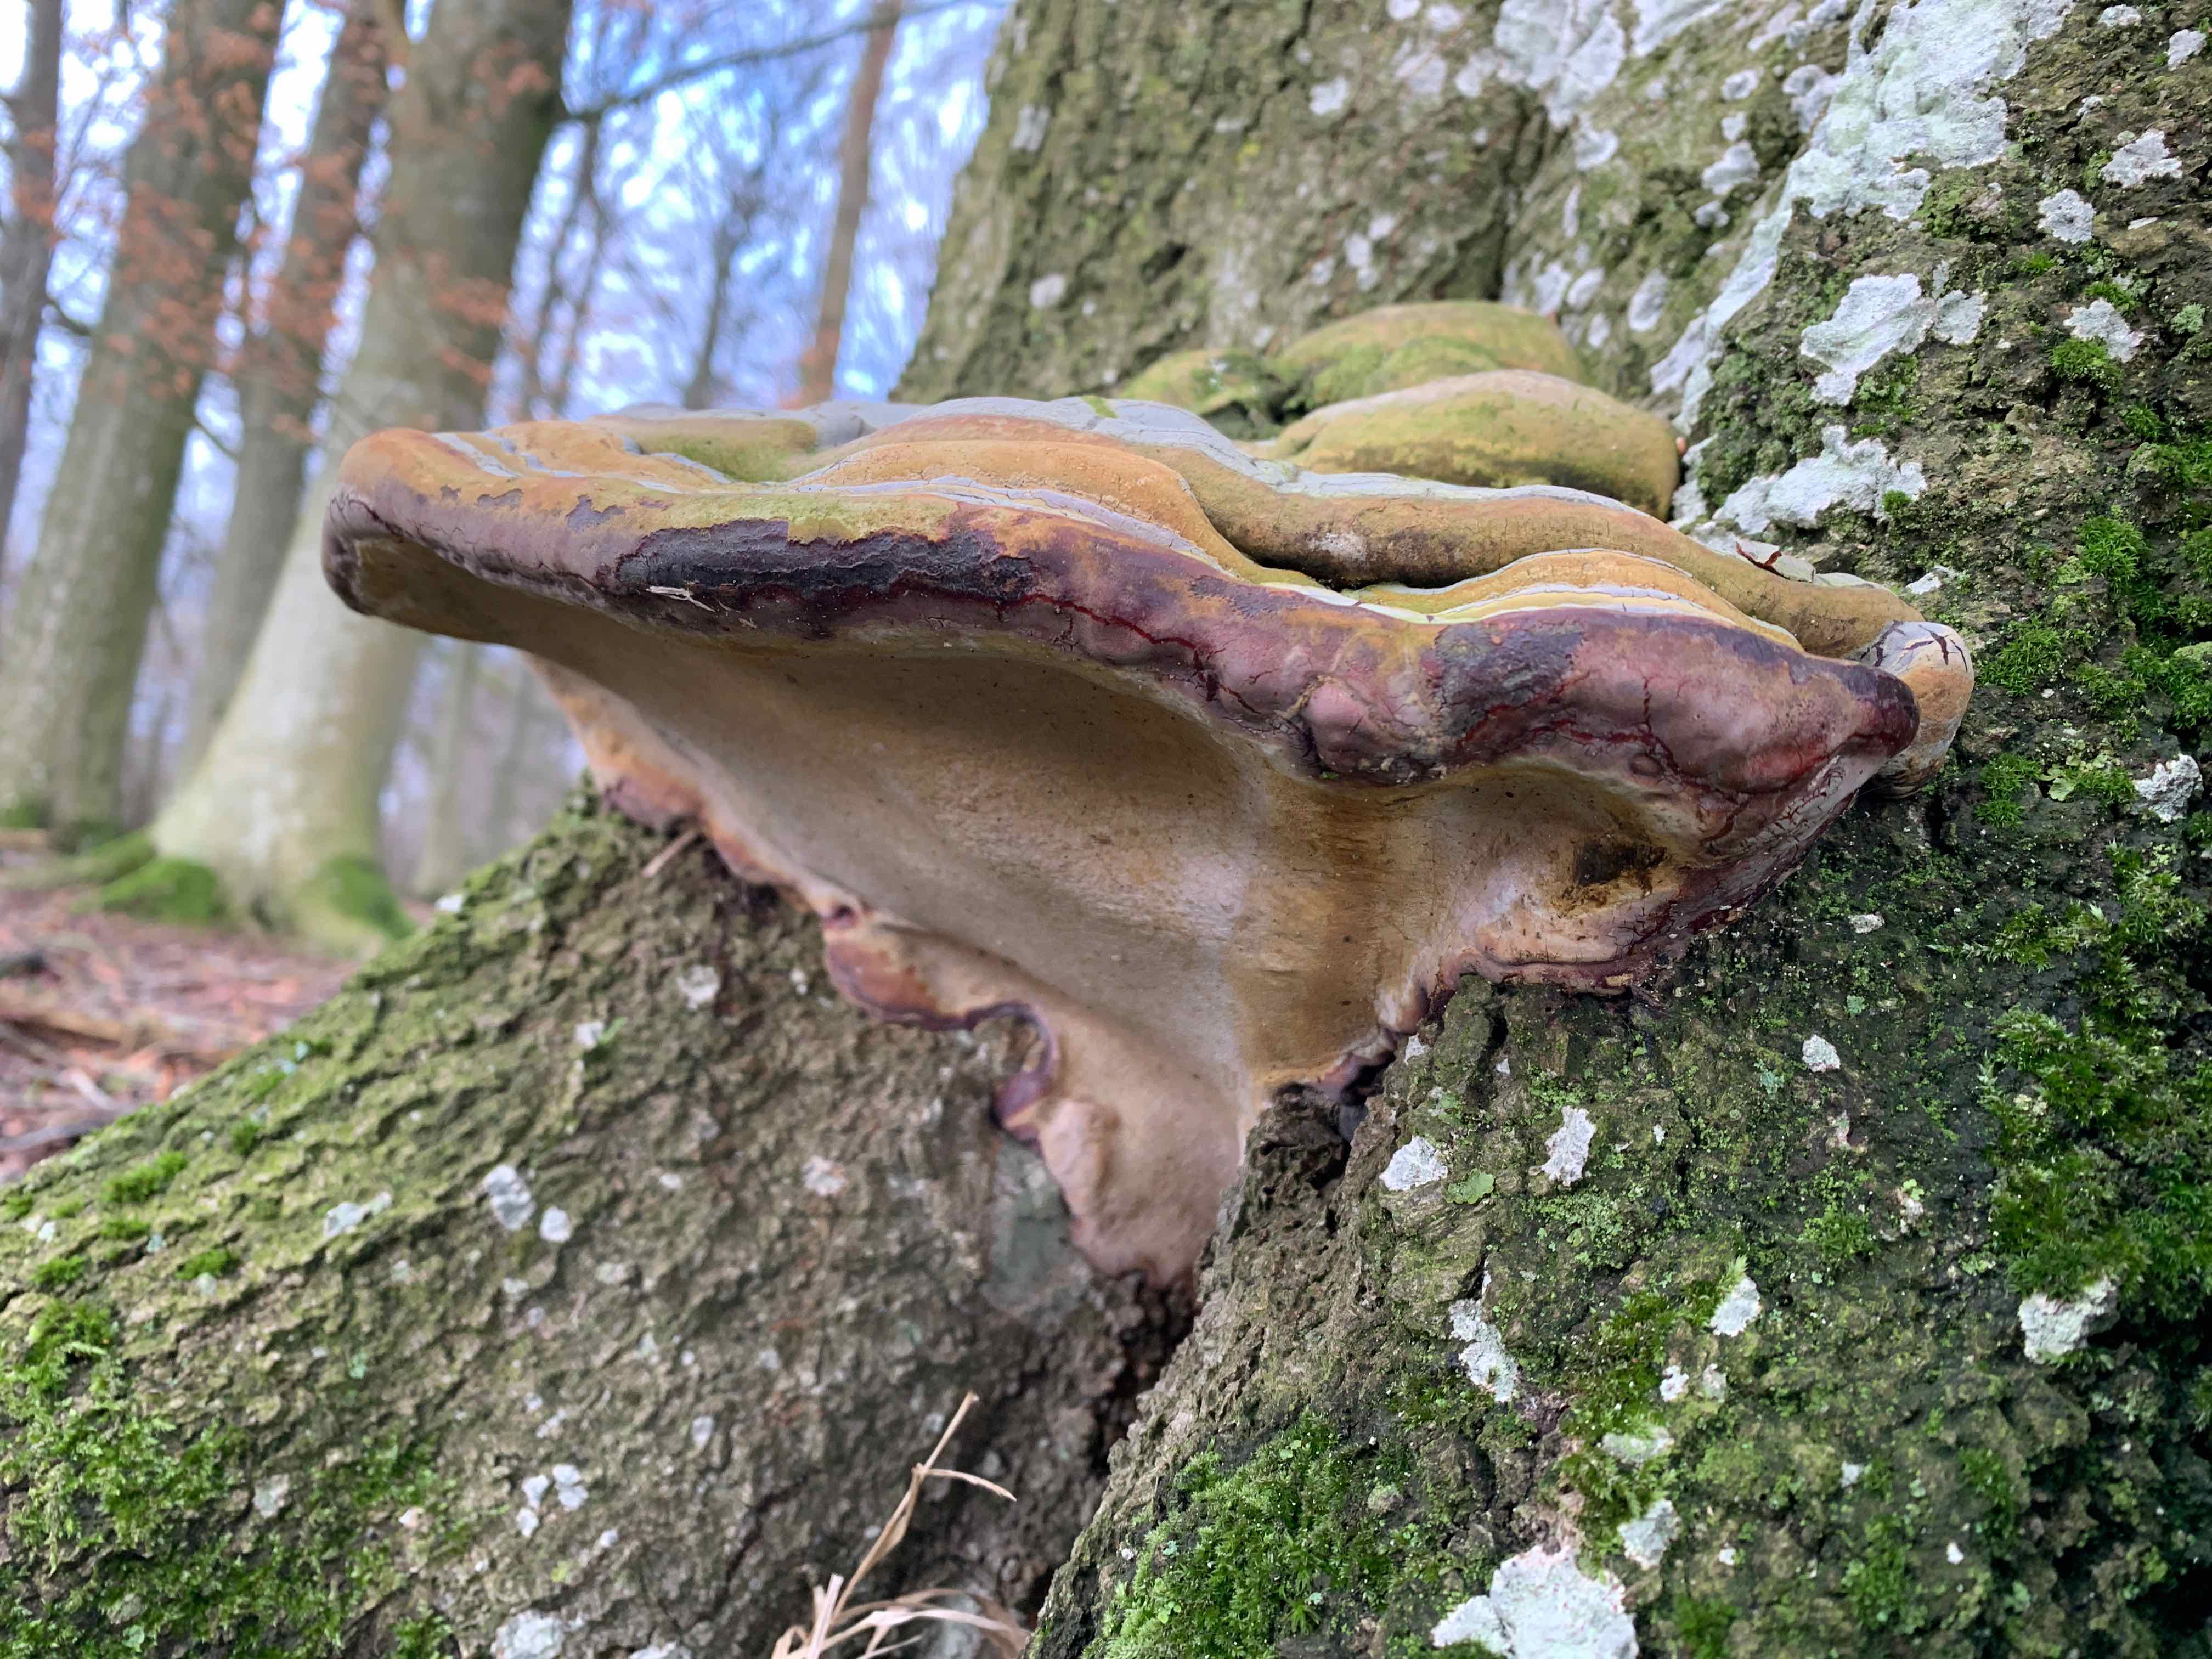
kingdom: Fungi
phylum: Basidiomycota
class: Agaricomycetes
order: Polyporales
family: Polyporaceae
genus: Ganoderma
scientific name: Ganoderma pfeifferi
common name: kobberrød lakporesvamp
